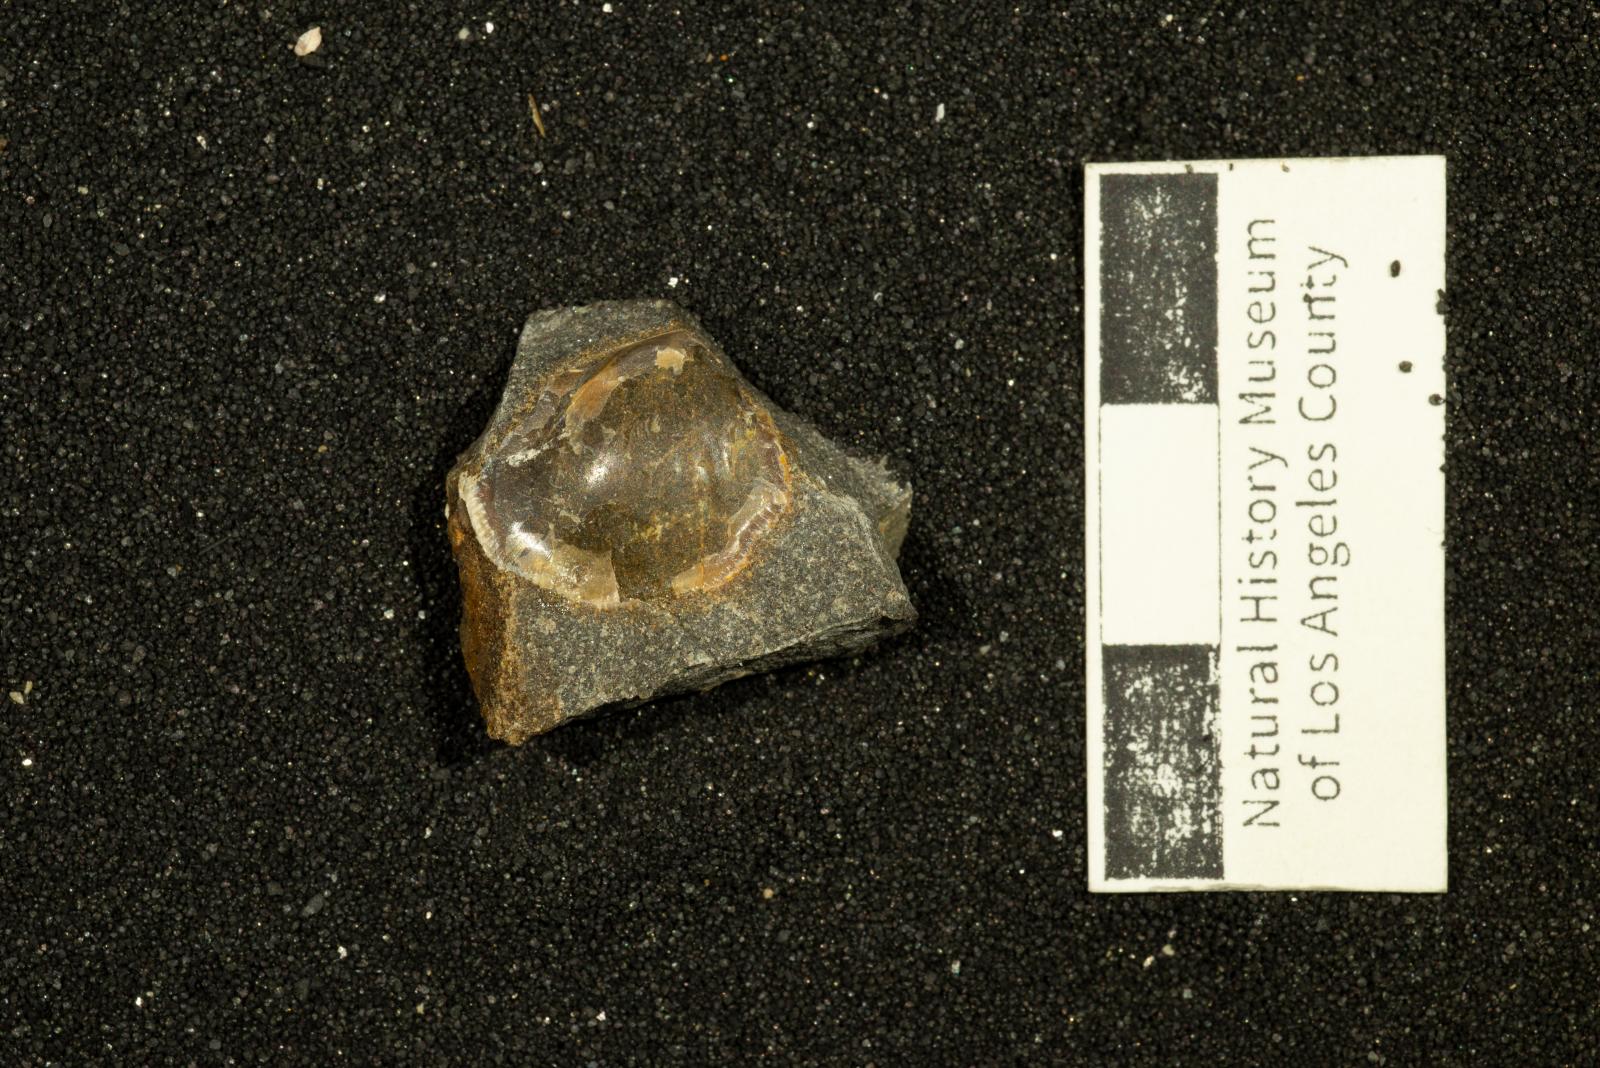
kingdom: Animalia
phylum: Mollusca
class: Bivalvia
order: Nuculida
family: Nuculidae
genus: Acila
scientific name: Acila demessa
